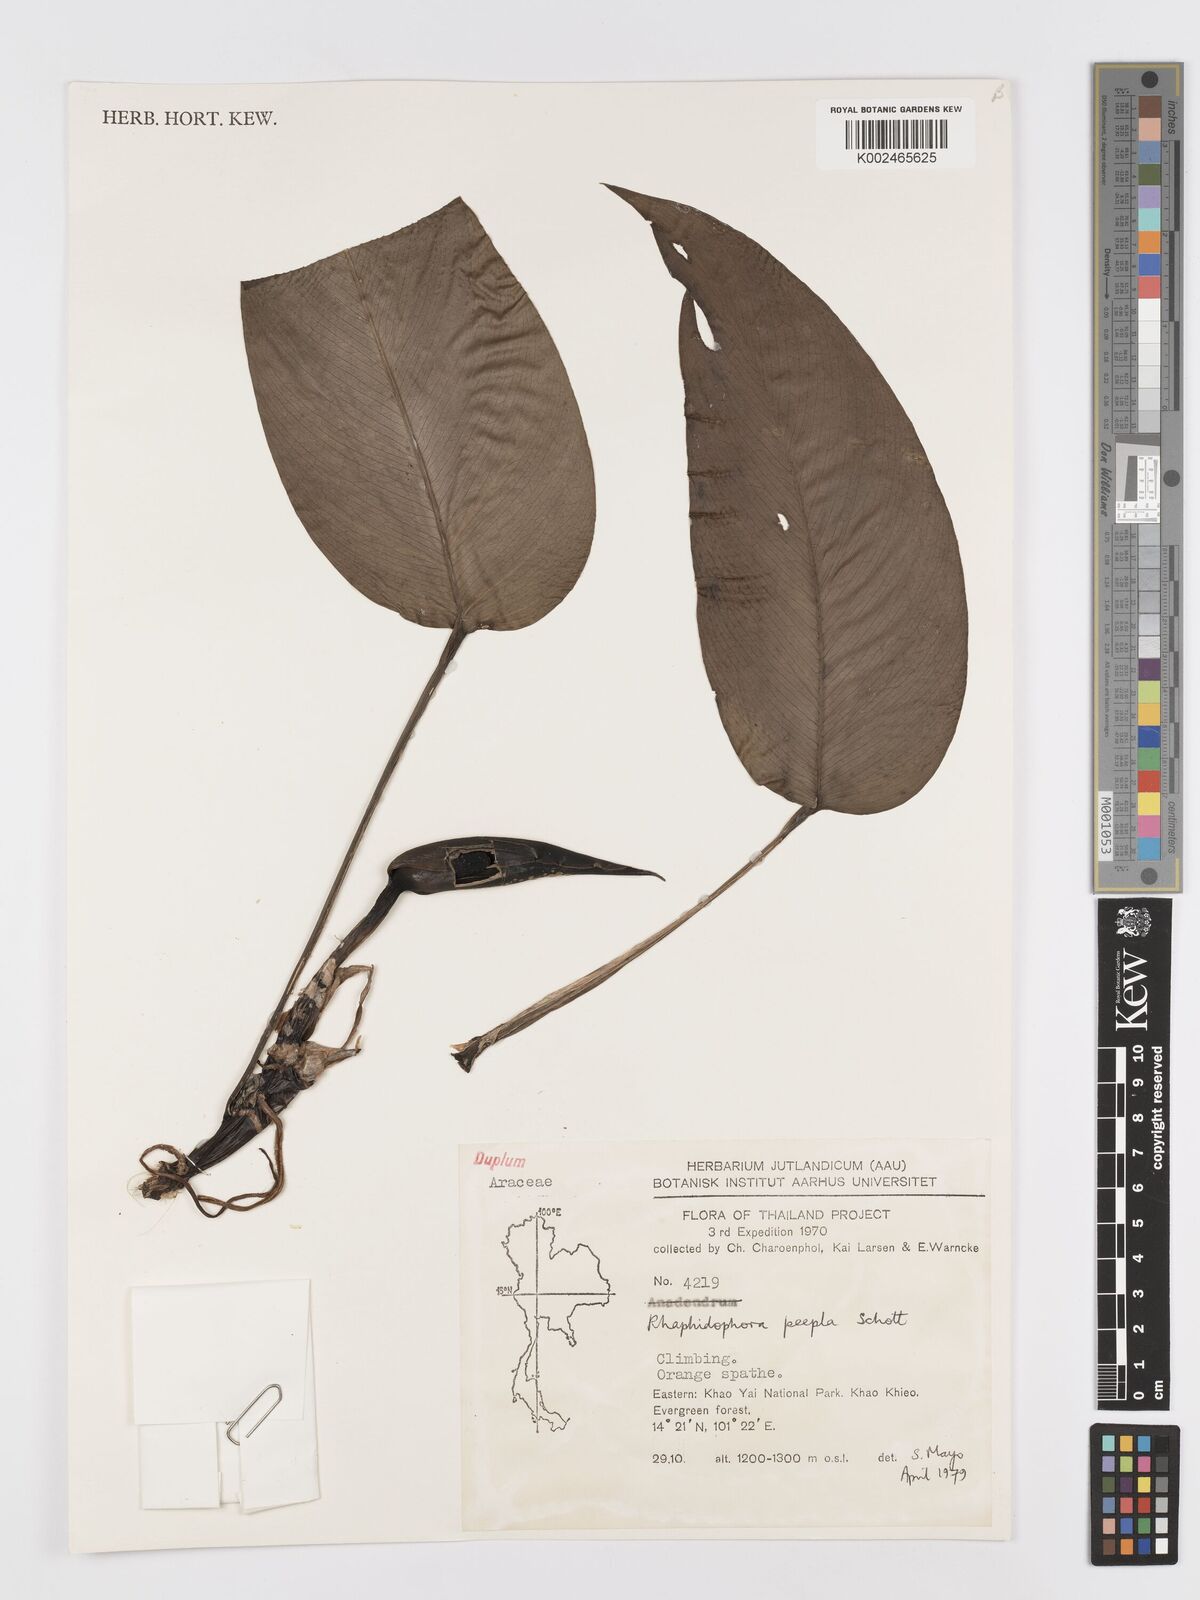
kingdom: Plantae
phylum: Tracheophyta
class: Liliopsida
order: Alismatales
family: Araceae
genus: Rhaphidophora
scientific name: Rhaphidophora peepla
